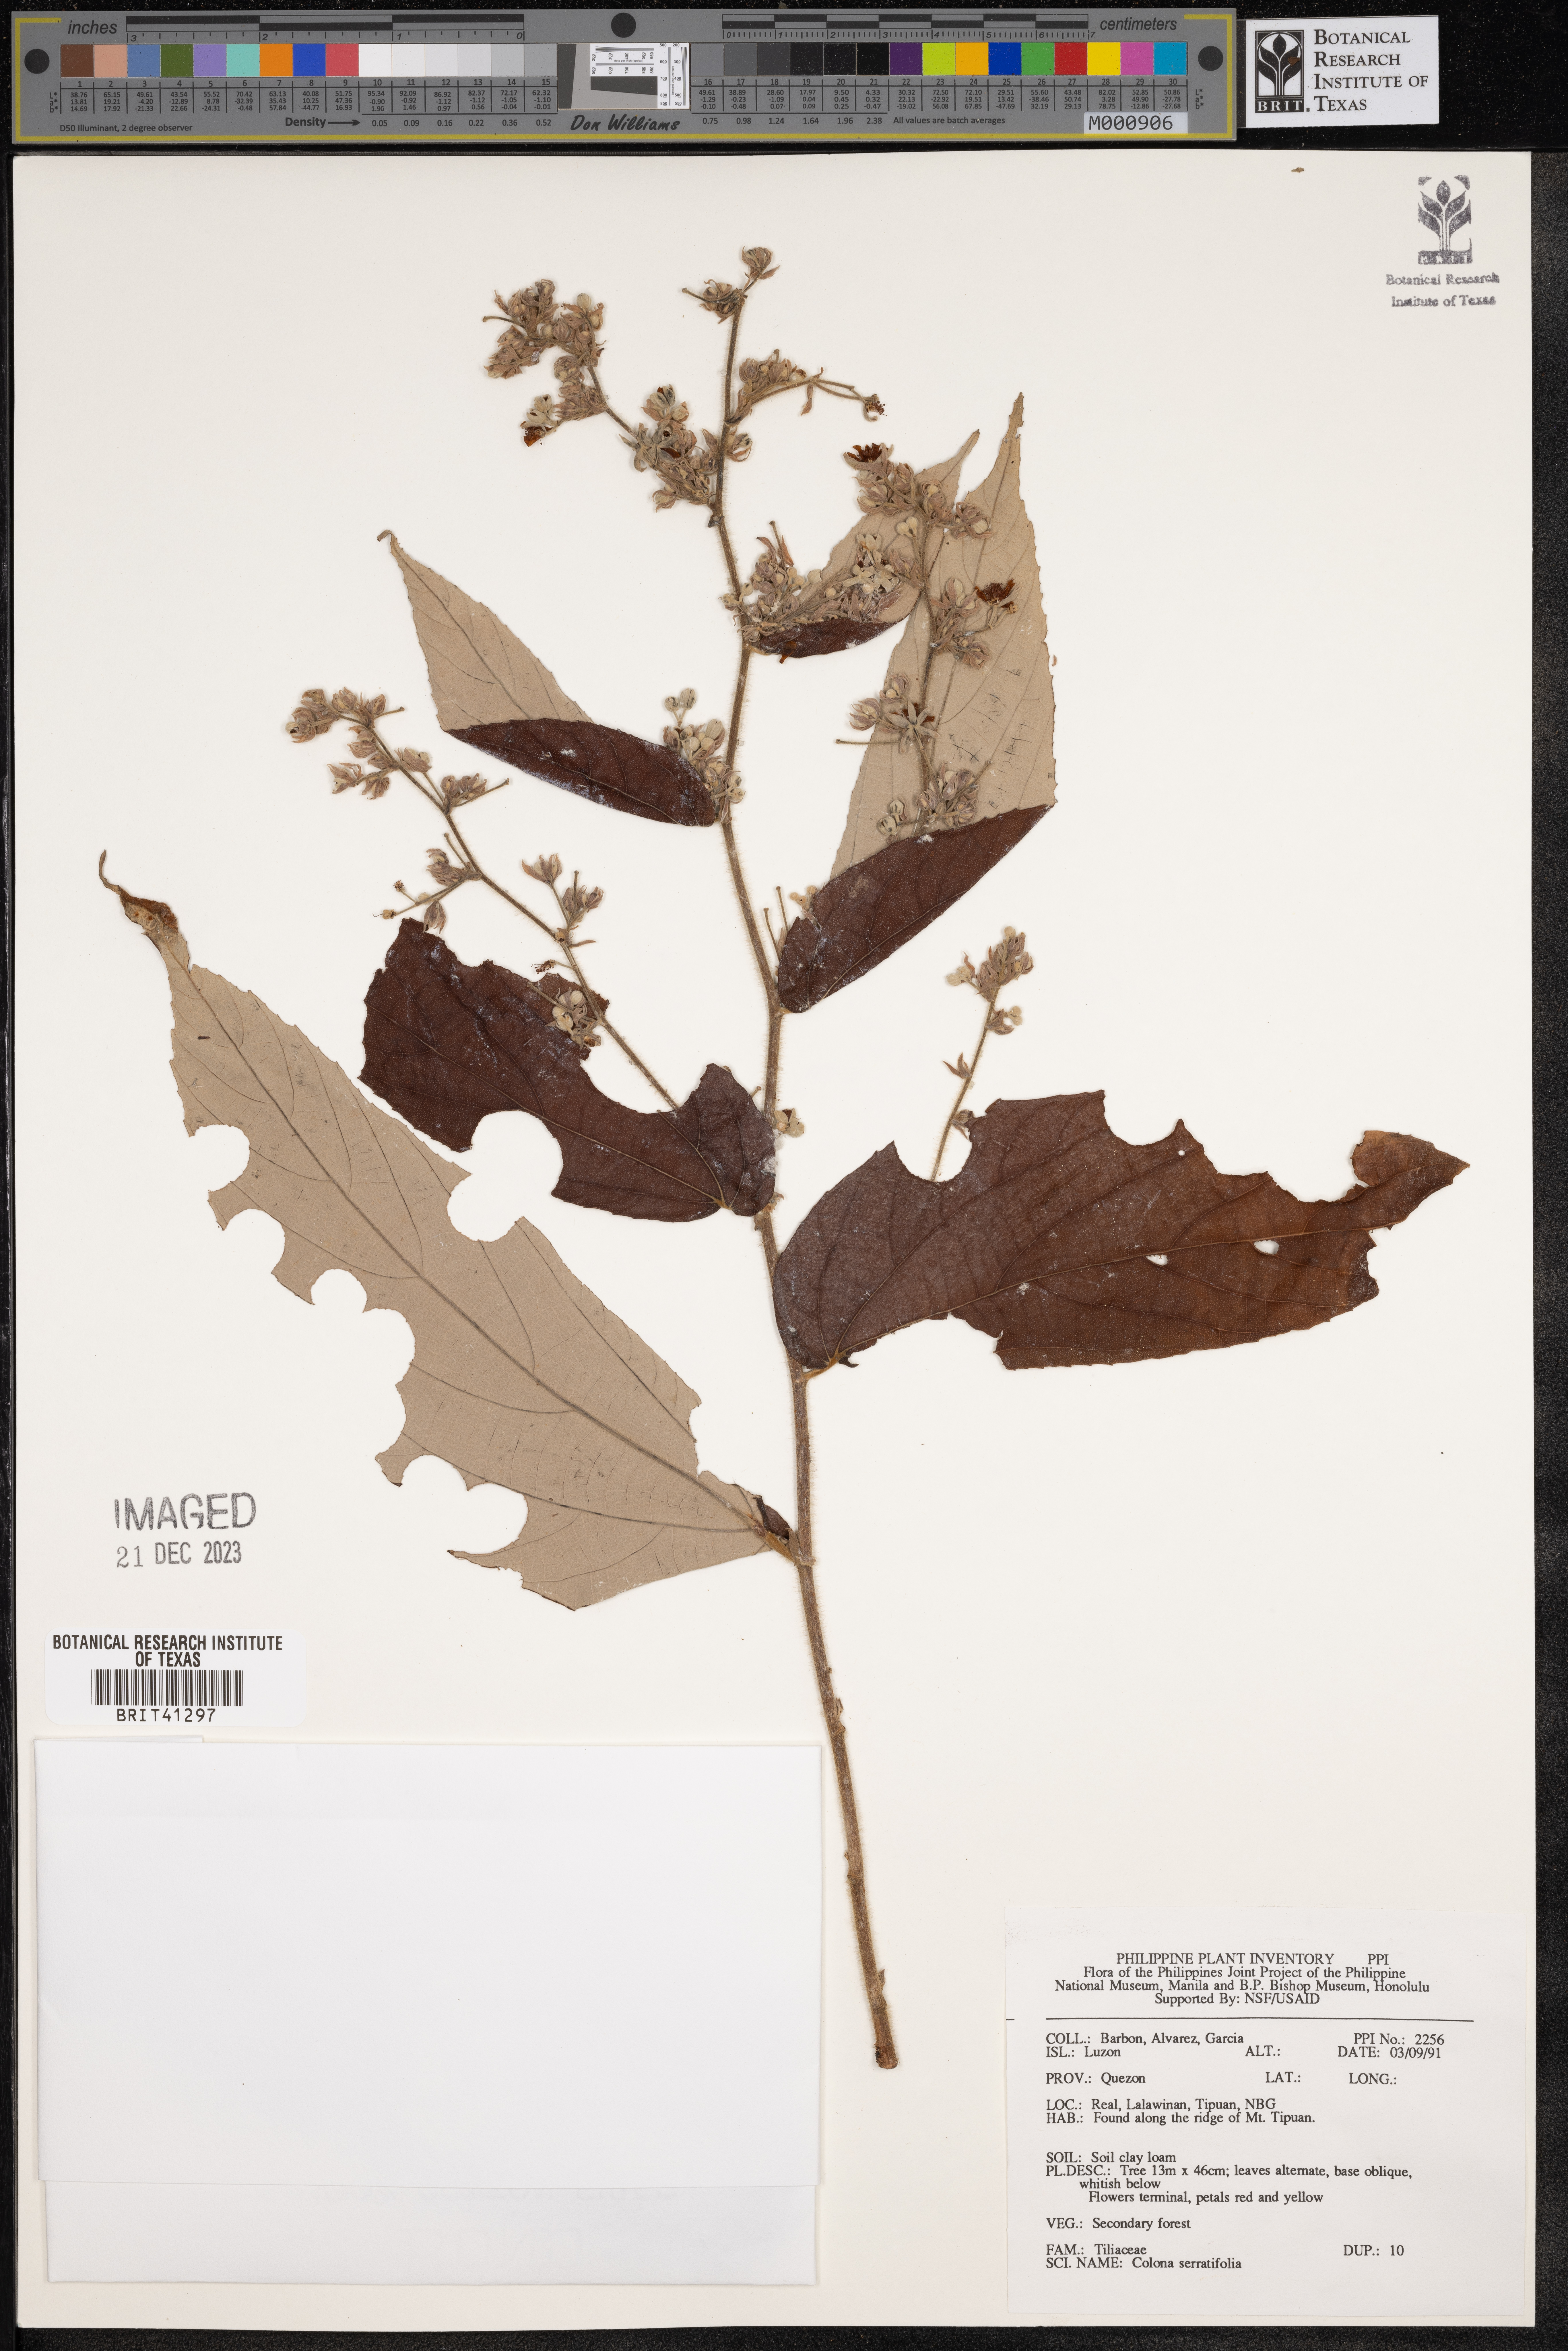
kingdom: Plantae
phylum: Tracheophyta
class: Magnoliopsida
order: Malvales
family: Malvaceae
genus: Colona
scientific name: Colona serratifolia
